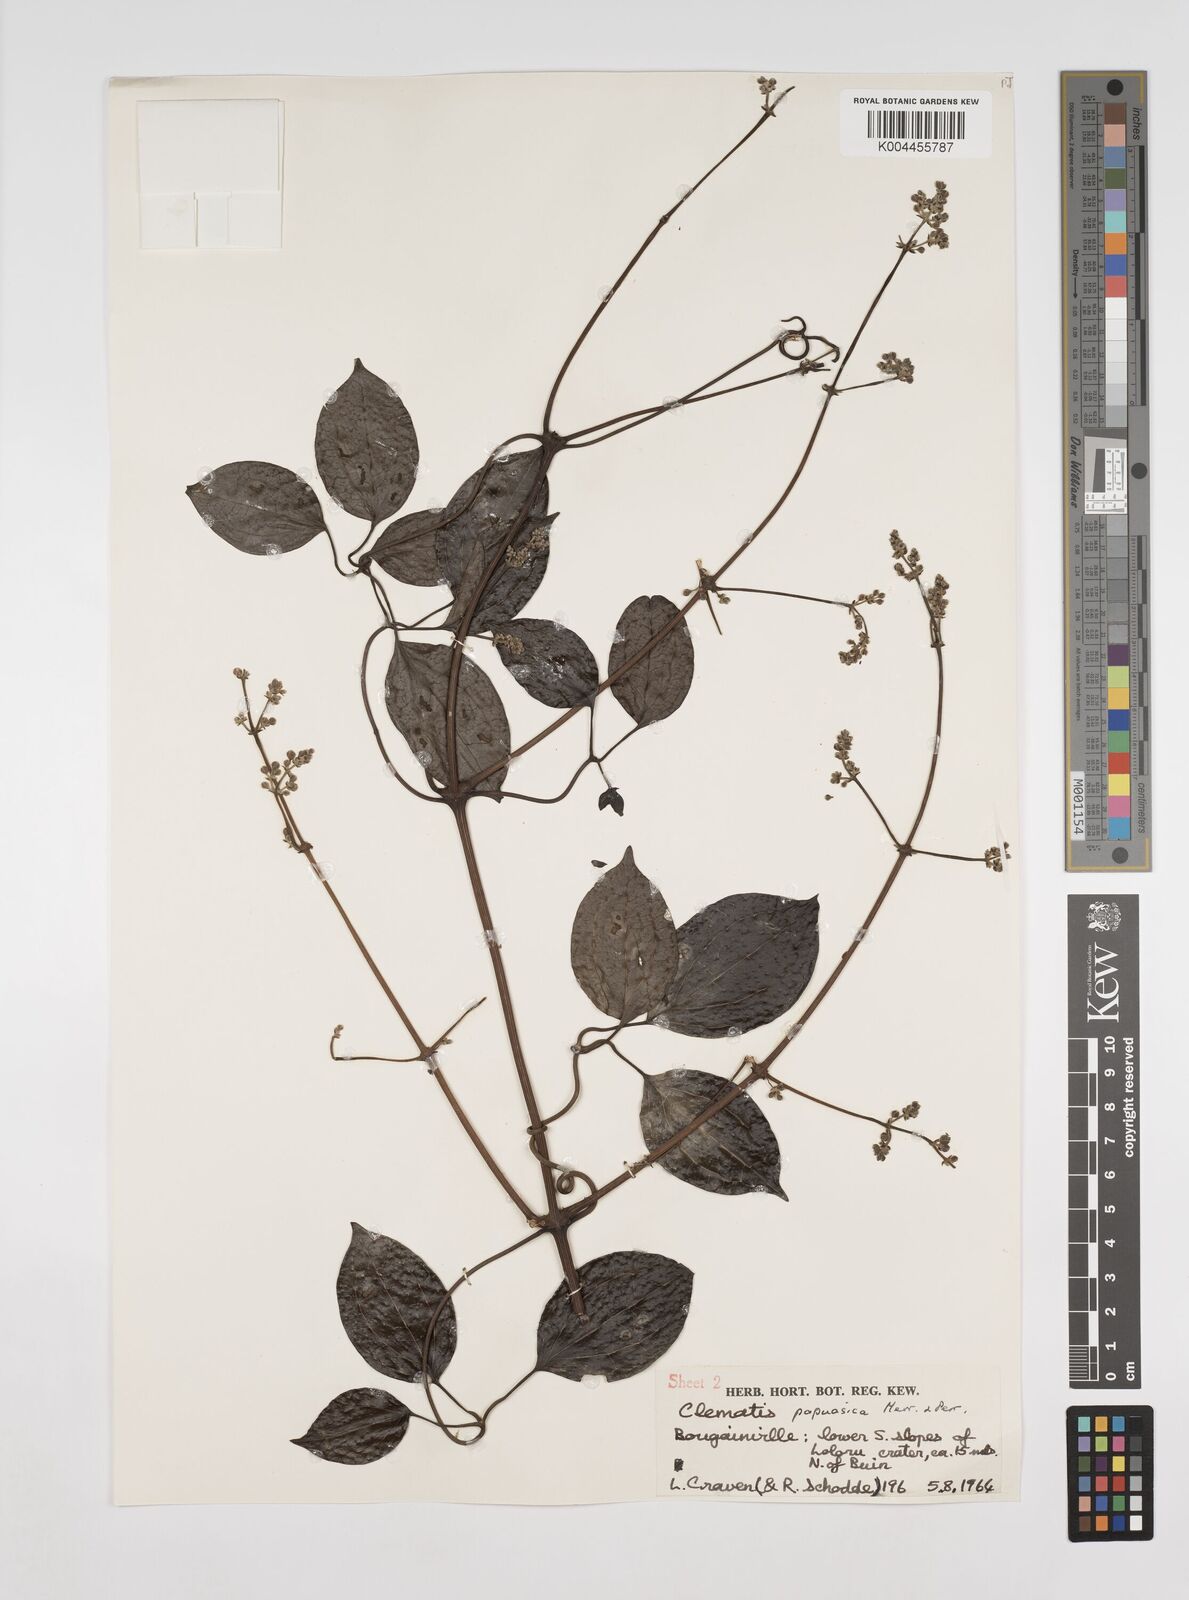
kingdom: Plantae
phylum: Tracheophyta
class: Magnoliopsida
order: Ranunculales
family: Ranunculaceae
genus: Clematis
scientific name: Clematis papuasica
